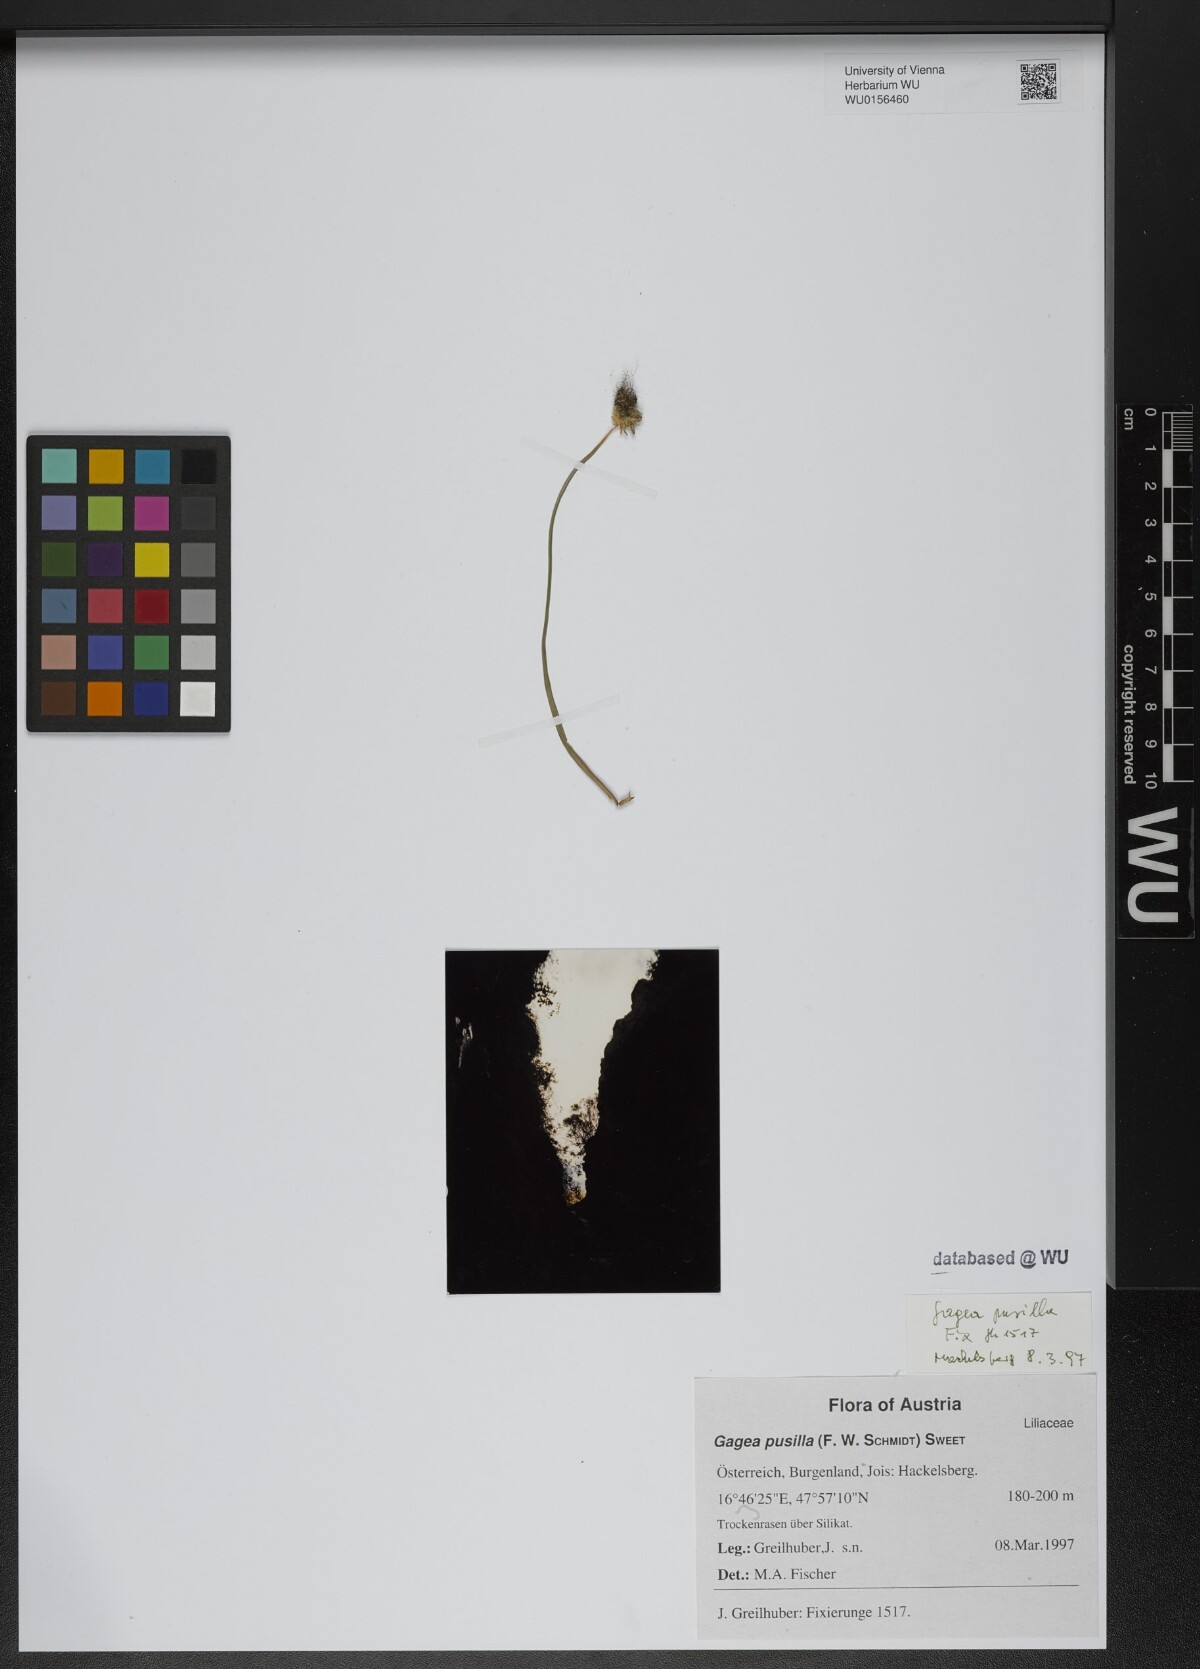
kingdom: Plantae
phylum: Tracheophyta
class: Liliopsida
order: Liliales
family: Liliaceae
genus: Gagea
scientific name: Gagea pusilla
